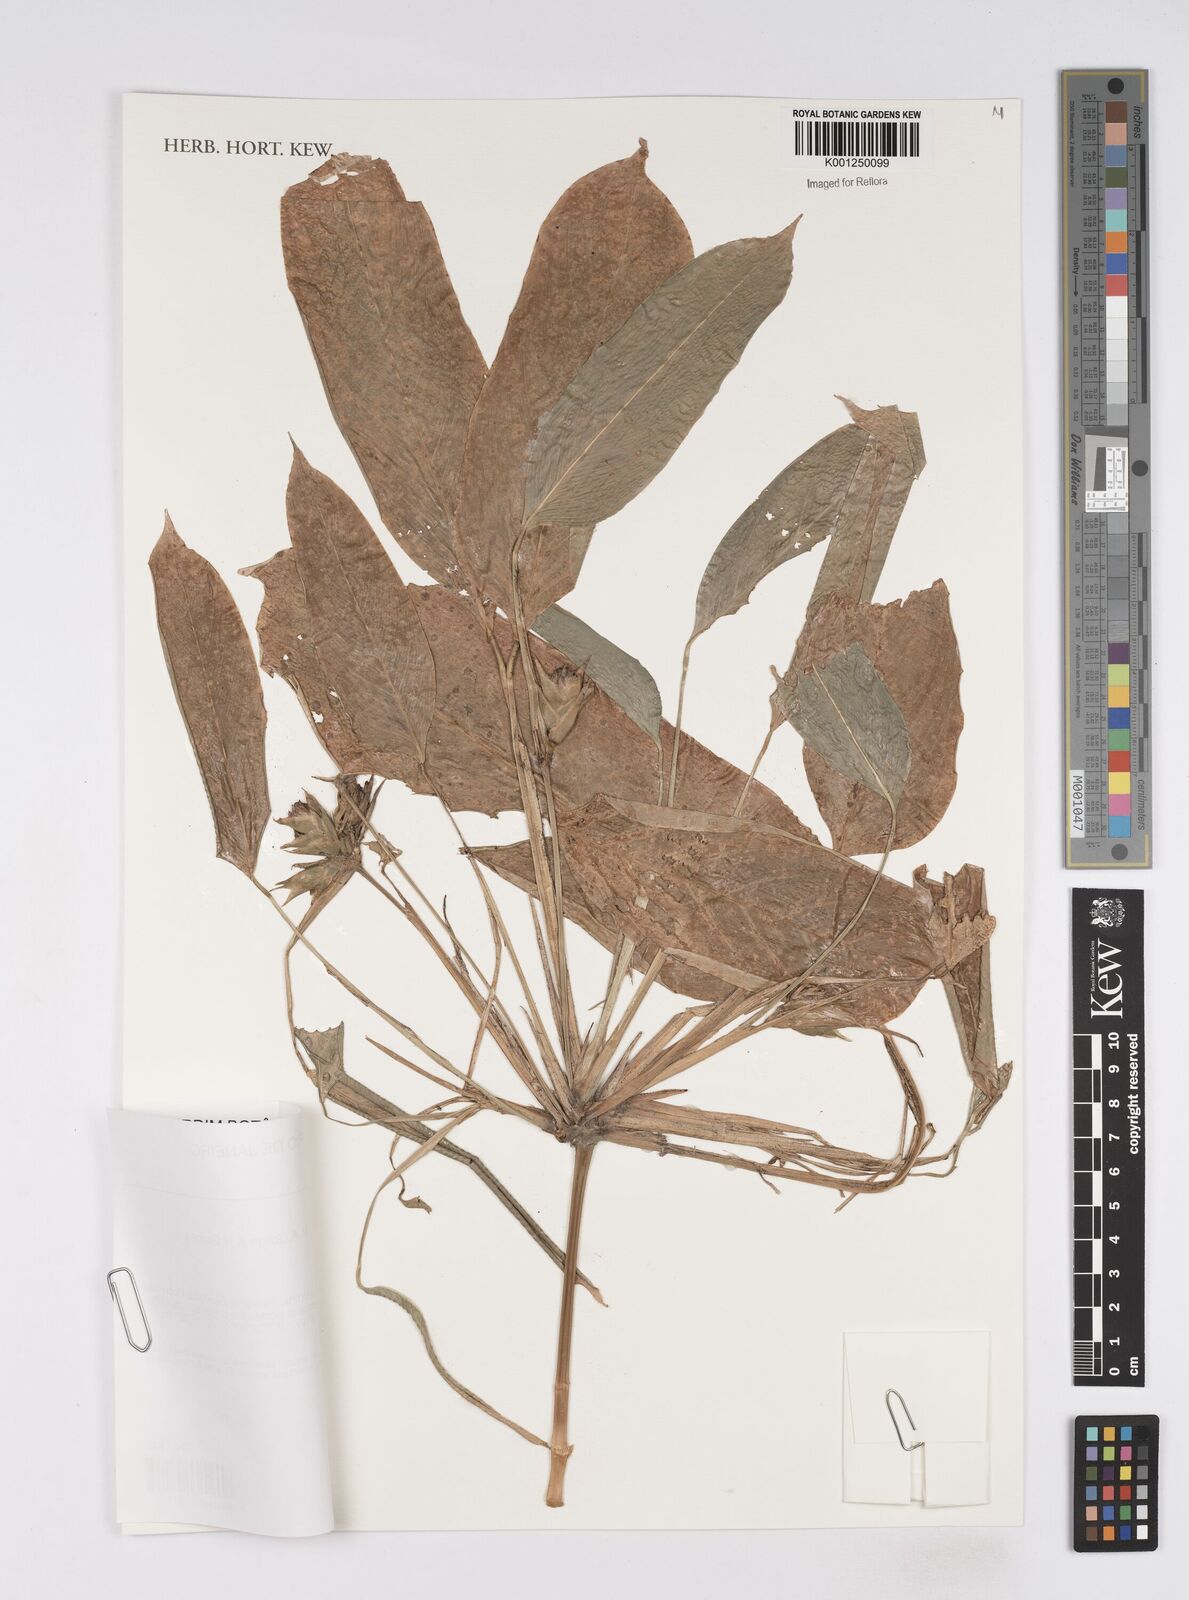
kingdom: Plantae
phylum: Tracheophyta
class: Liliopsida
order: Zingiberales
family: Marantaceae
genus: Ctenanthe
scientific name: Ctenanthe marantifolia
